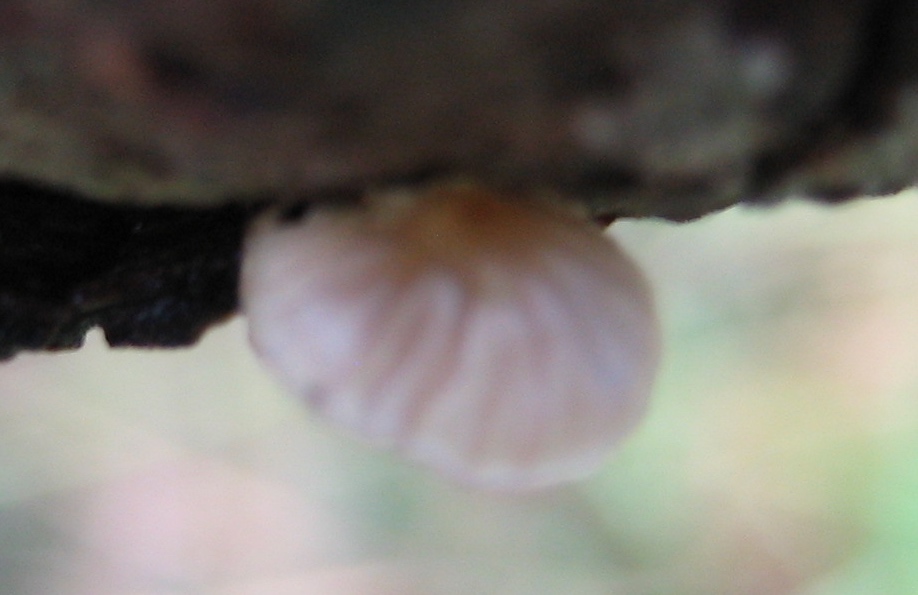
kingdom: Fungi
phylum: Basidiomycota
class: Agaricomycetes
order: Agaricales
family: Mycenaceae
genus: Mycena
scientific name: Mycena
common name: huesvamp
